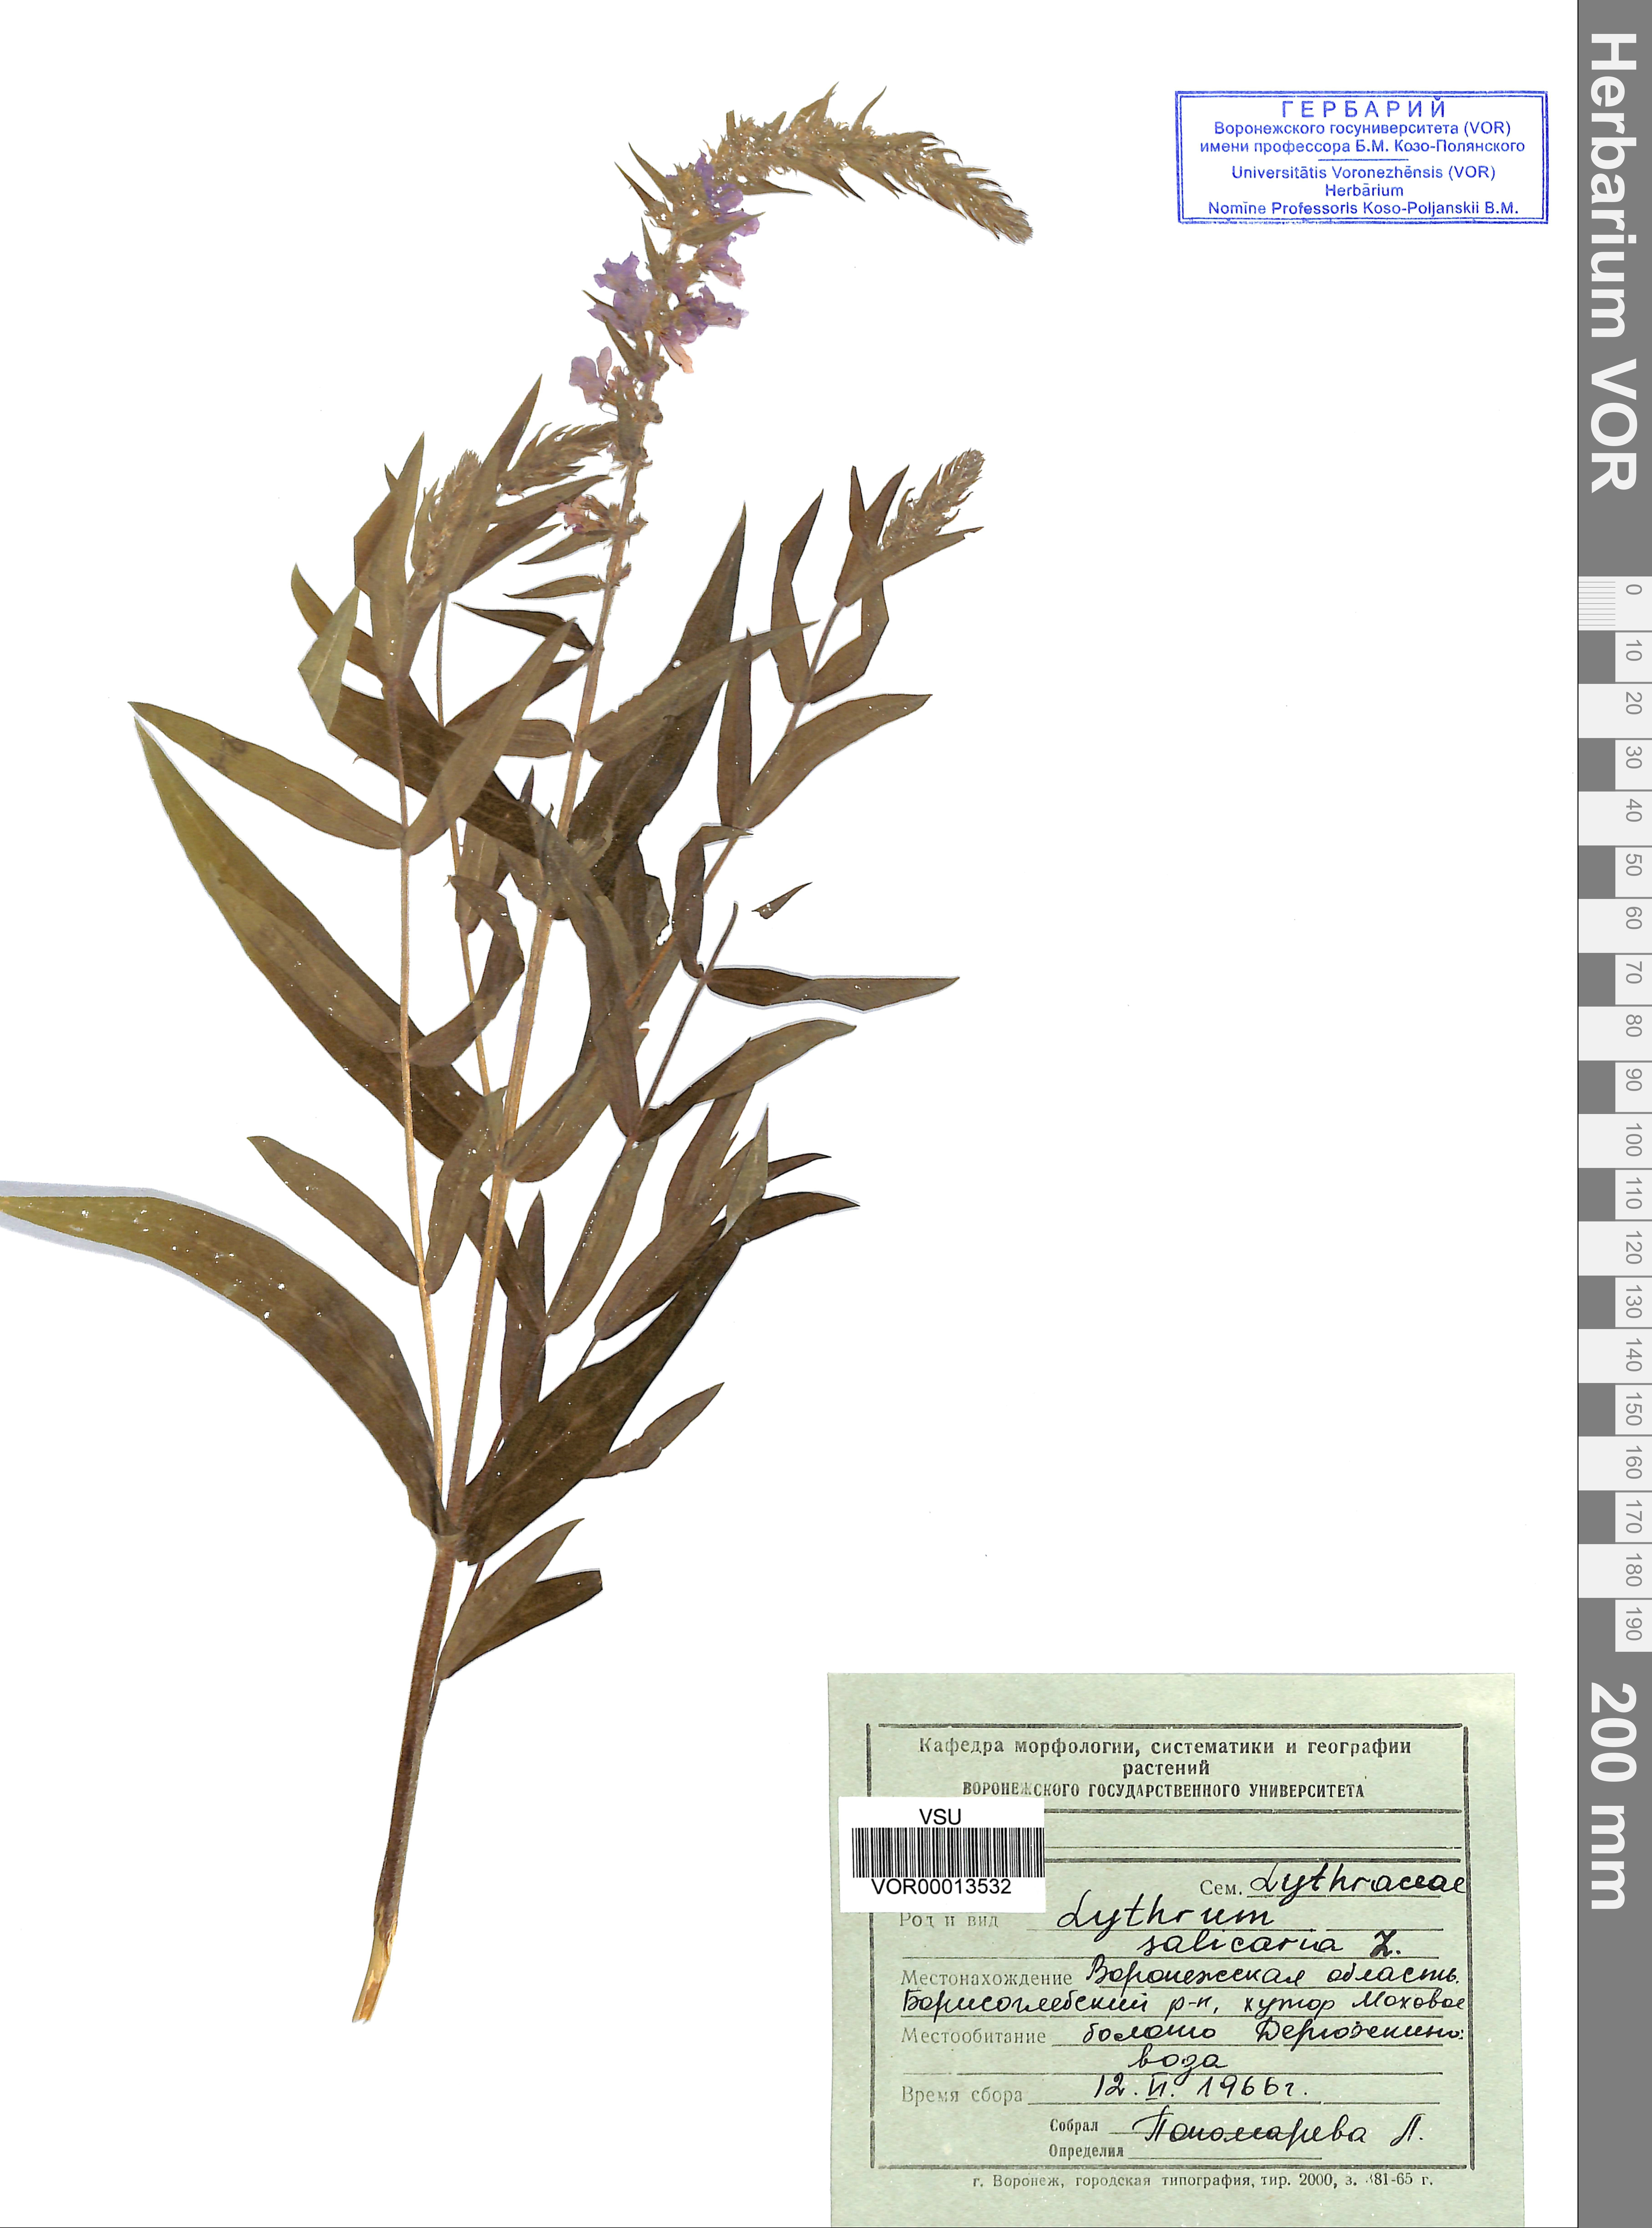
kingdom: Plantae
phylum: Tracheophyta
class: Magnoliopsida
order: Myrtales
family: Lythraceae
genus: Lythrum
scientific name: Lythrum salicaria
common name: Purple loosestrife
